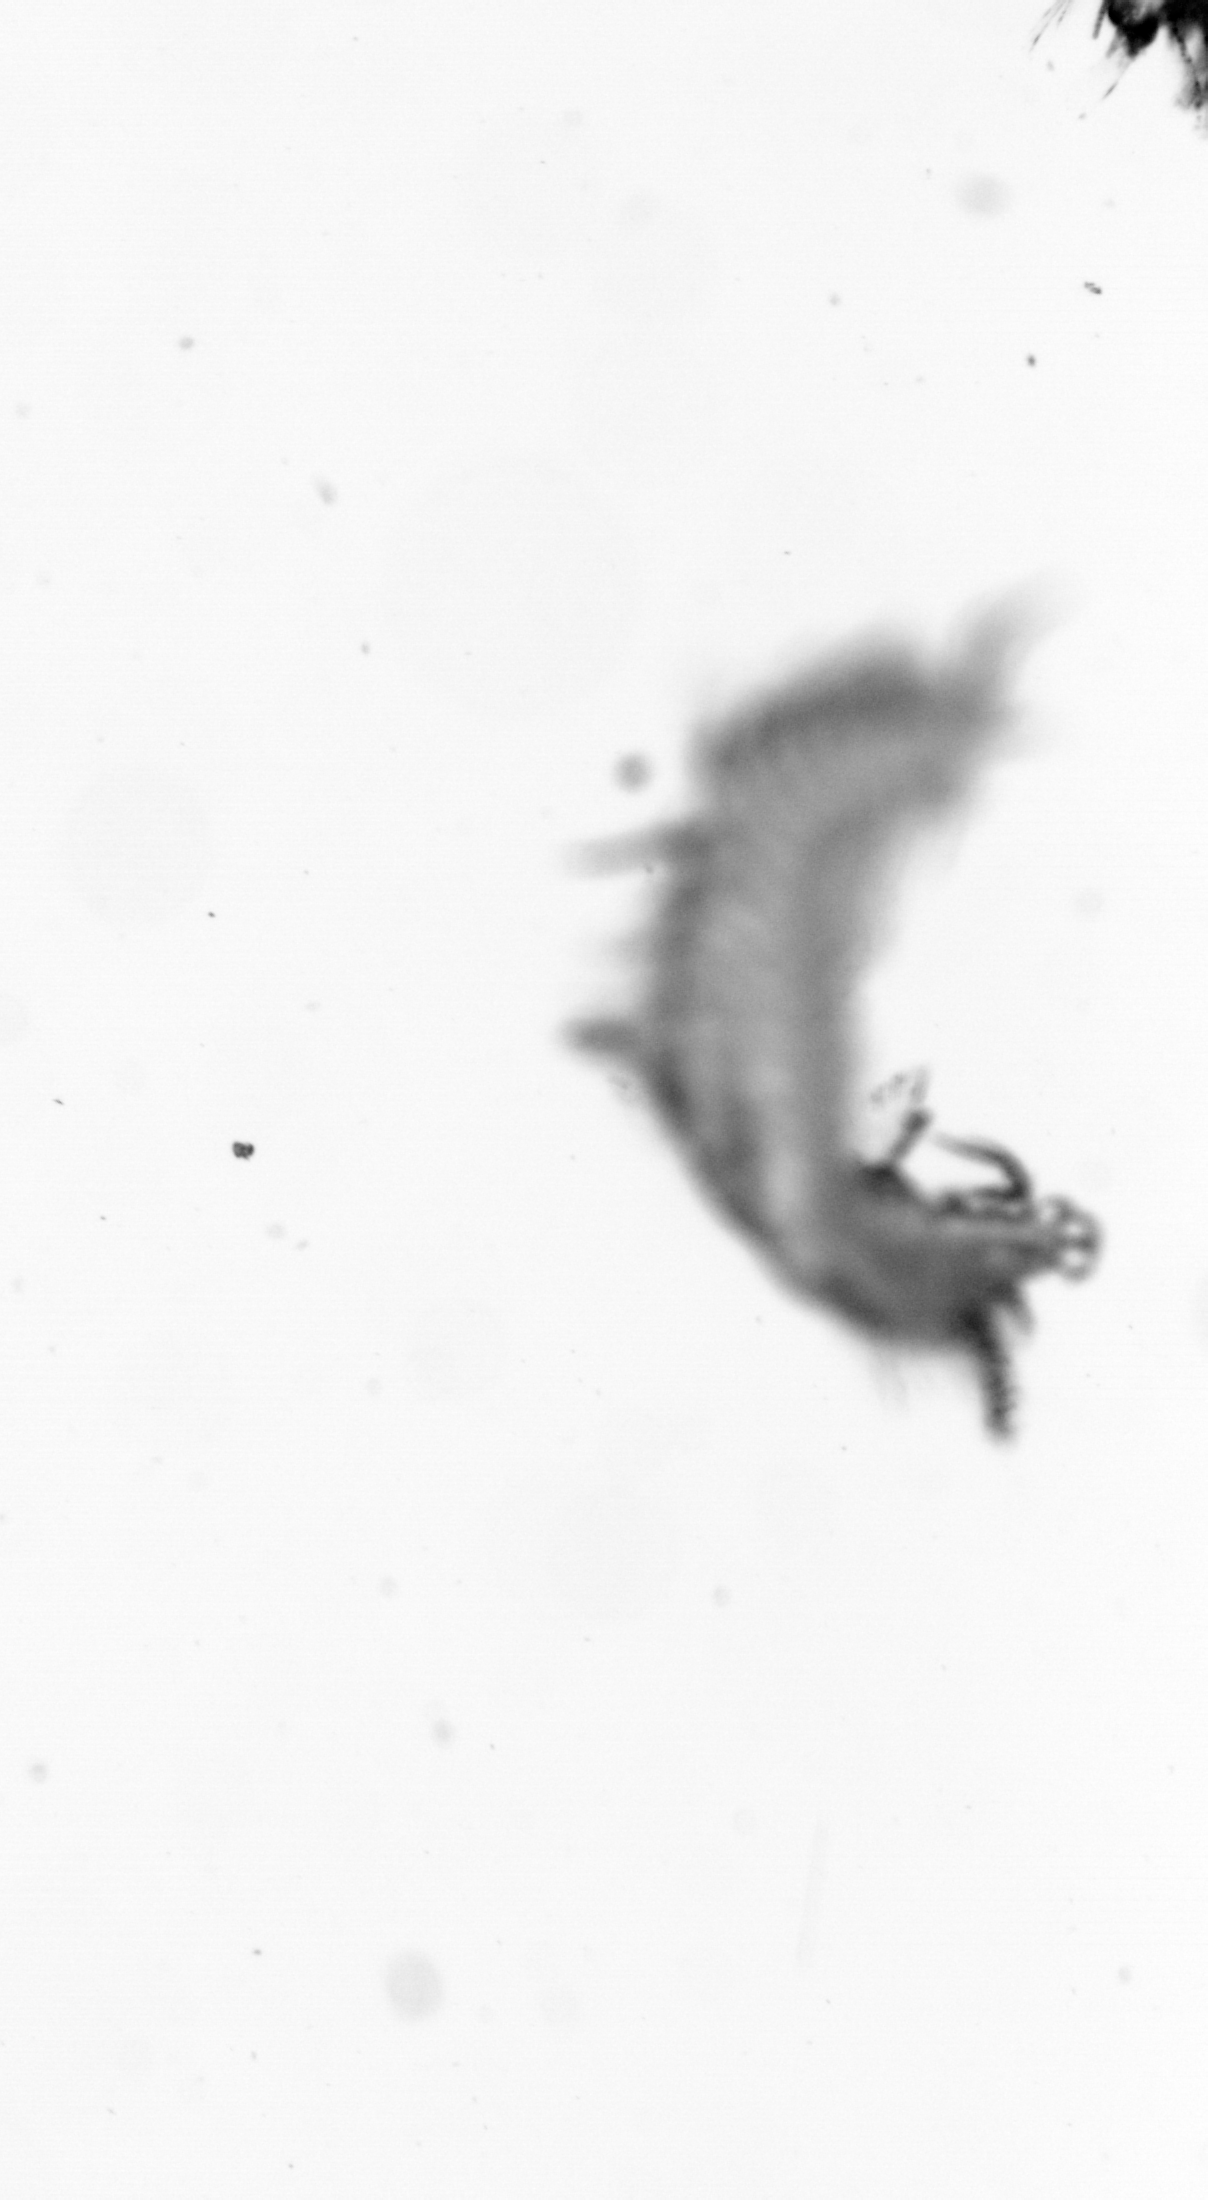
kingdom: Animalia
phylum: Annelida
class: Polychaeta
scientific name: Polychaeta
